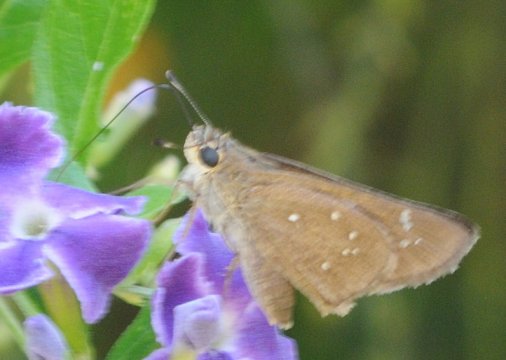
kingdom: Animalia
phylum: Arthropoda
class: Insecta
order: Lepidoptera
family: Hesperiidae
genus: Pelopidas
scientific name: Pelopidas mathias
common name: Small Branded Swift
